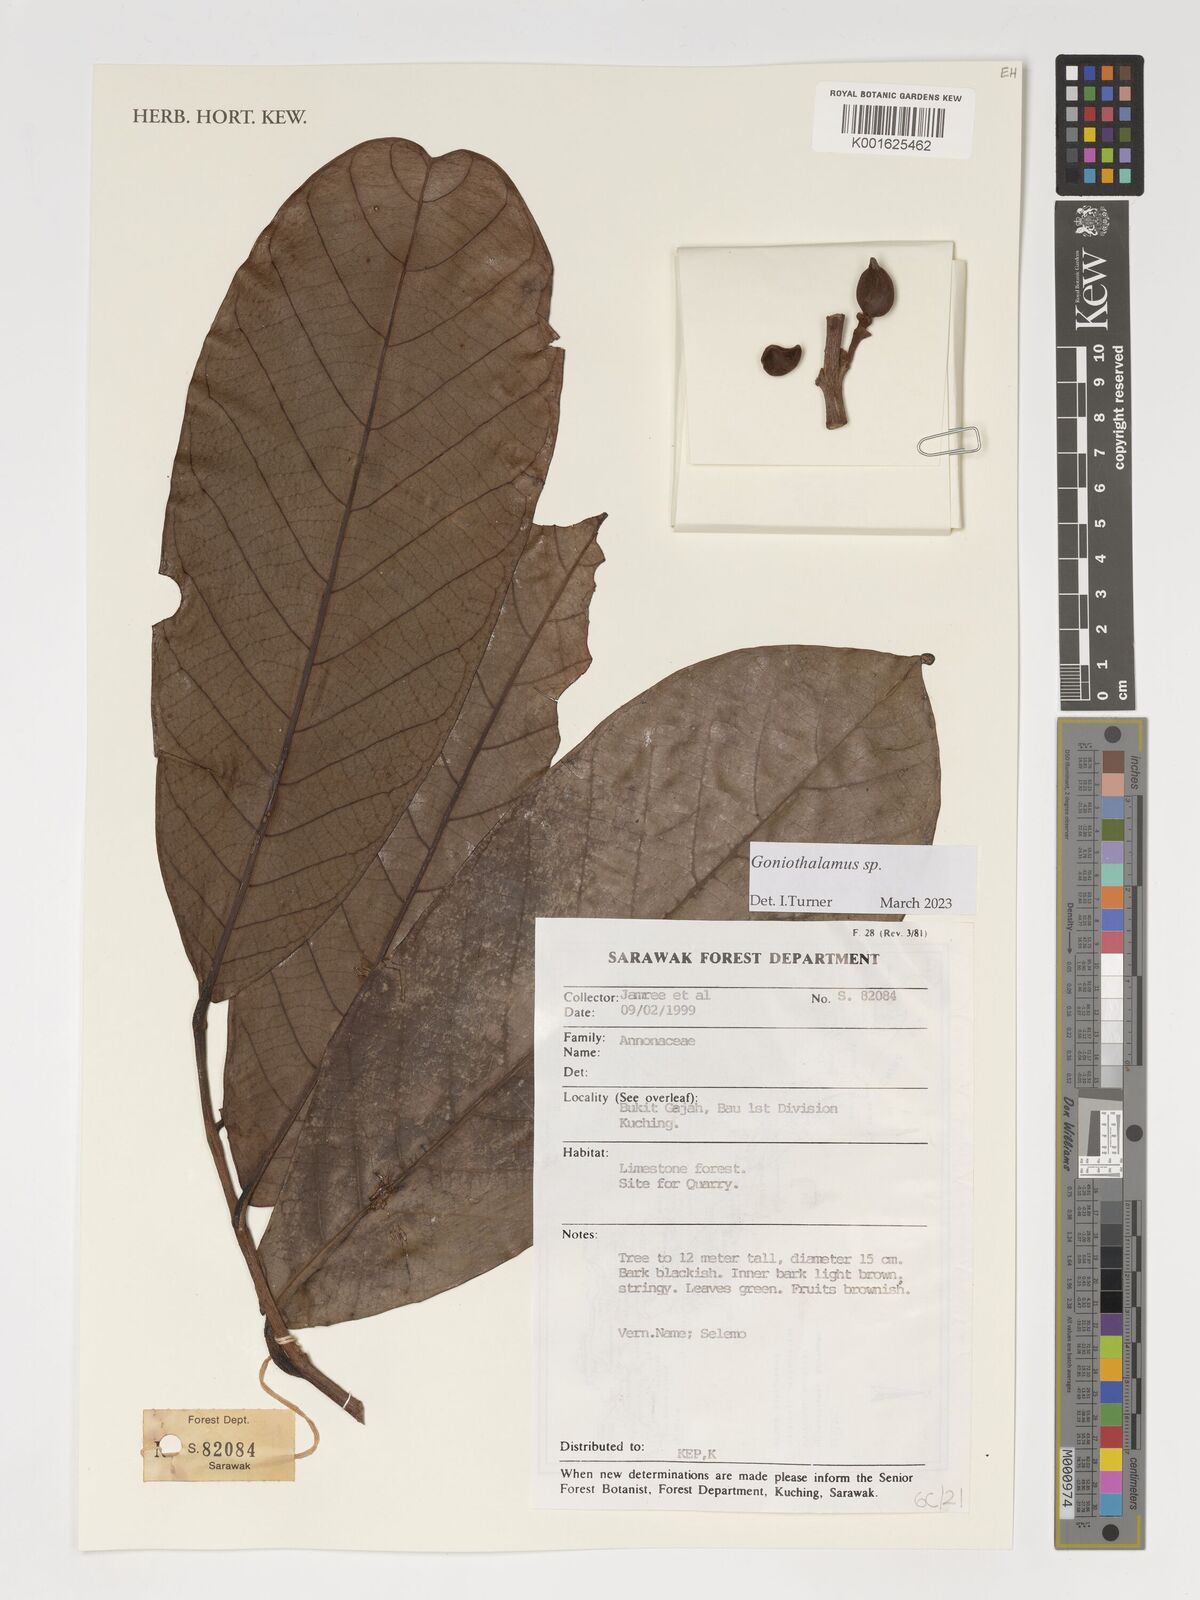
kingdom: Plantae
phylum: Tracheophyta
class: Magnoliopsida
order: Magnoliales
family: Annonaceae
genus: Goniothalamus
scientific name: Goniothalamus
